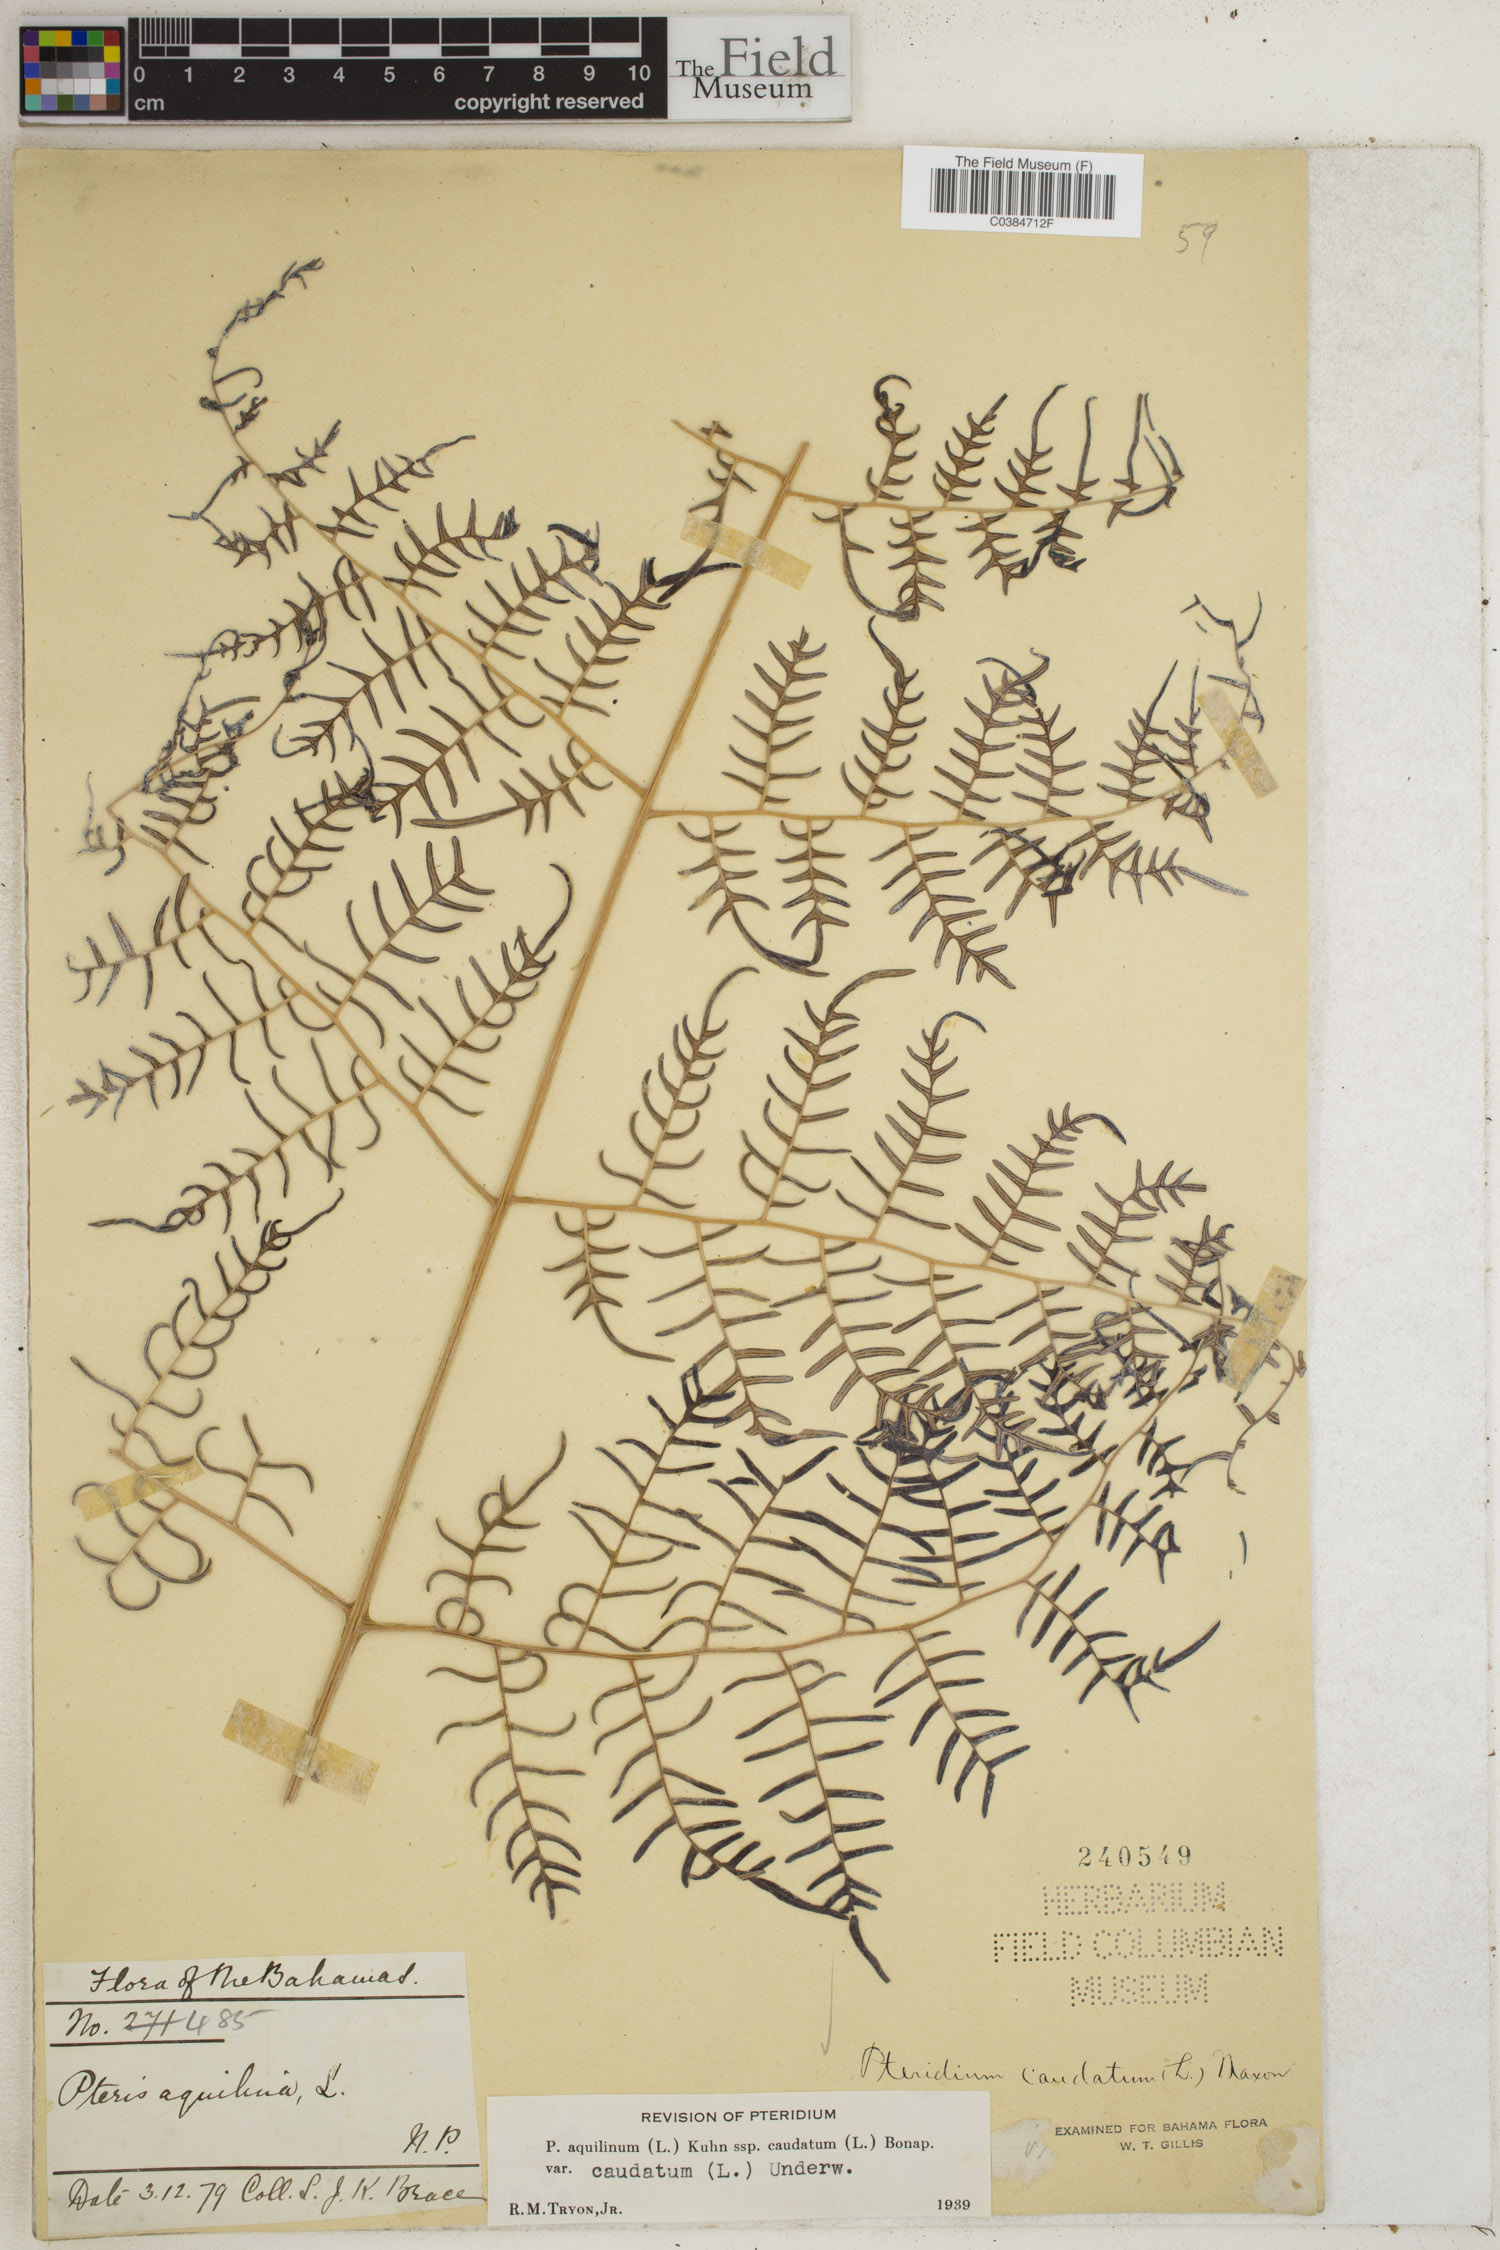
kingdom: Plantae
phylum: Tracheophyta
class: Polypodiopsida
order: Polypodiales
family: Dennstaedtiaceae
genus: Pteridium
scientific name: Pteridium caudatum
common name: Southern bracken fern
